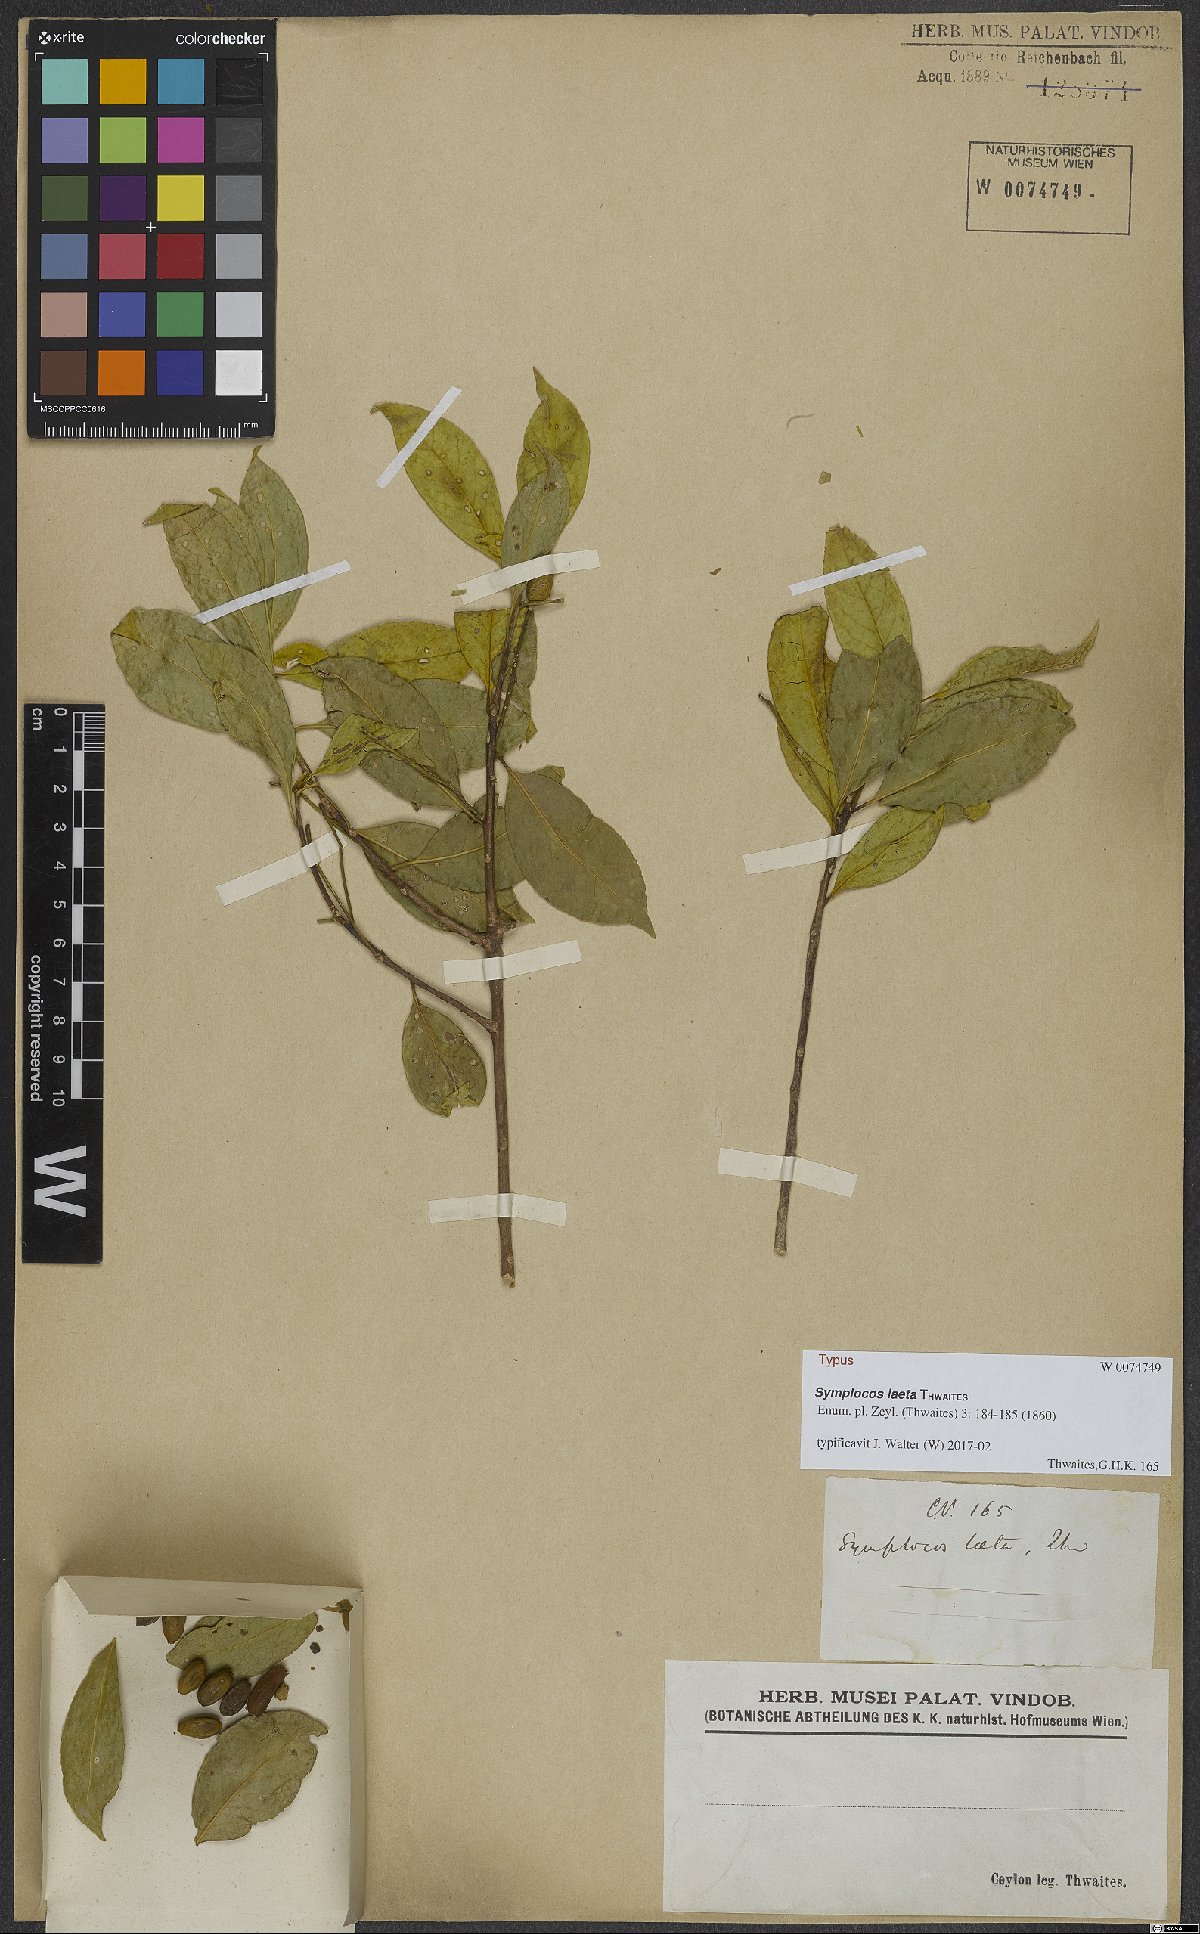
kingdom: Plantae
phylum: Tracheophyta
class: Magnoliopsida
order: Ericales
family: Symplocaceae
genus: Symplocos
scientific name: Symplocos obtusa
